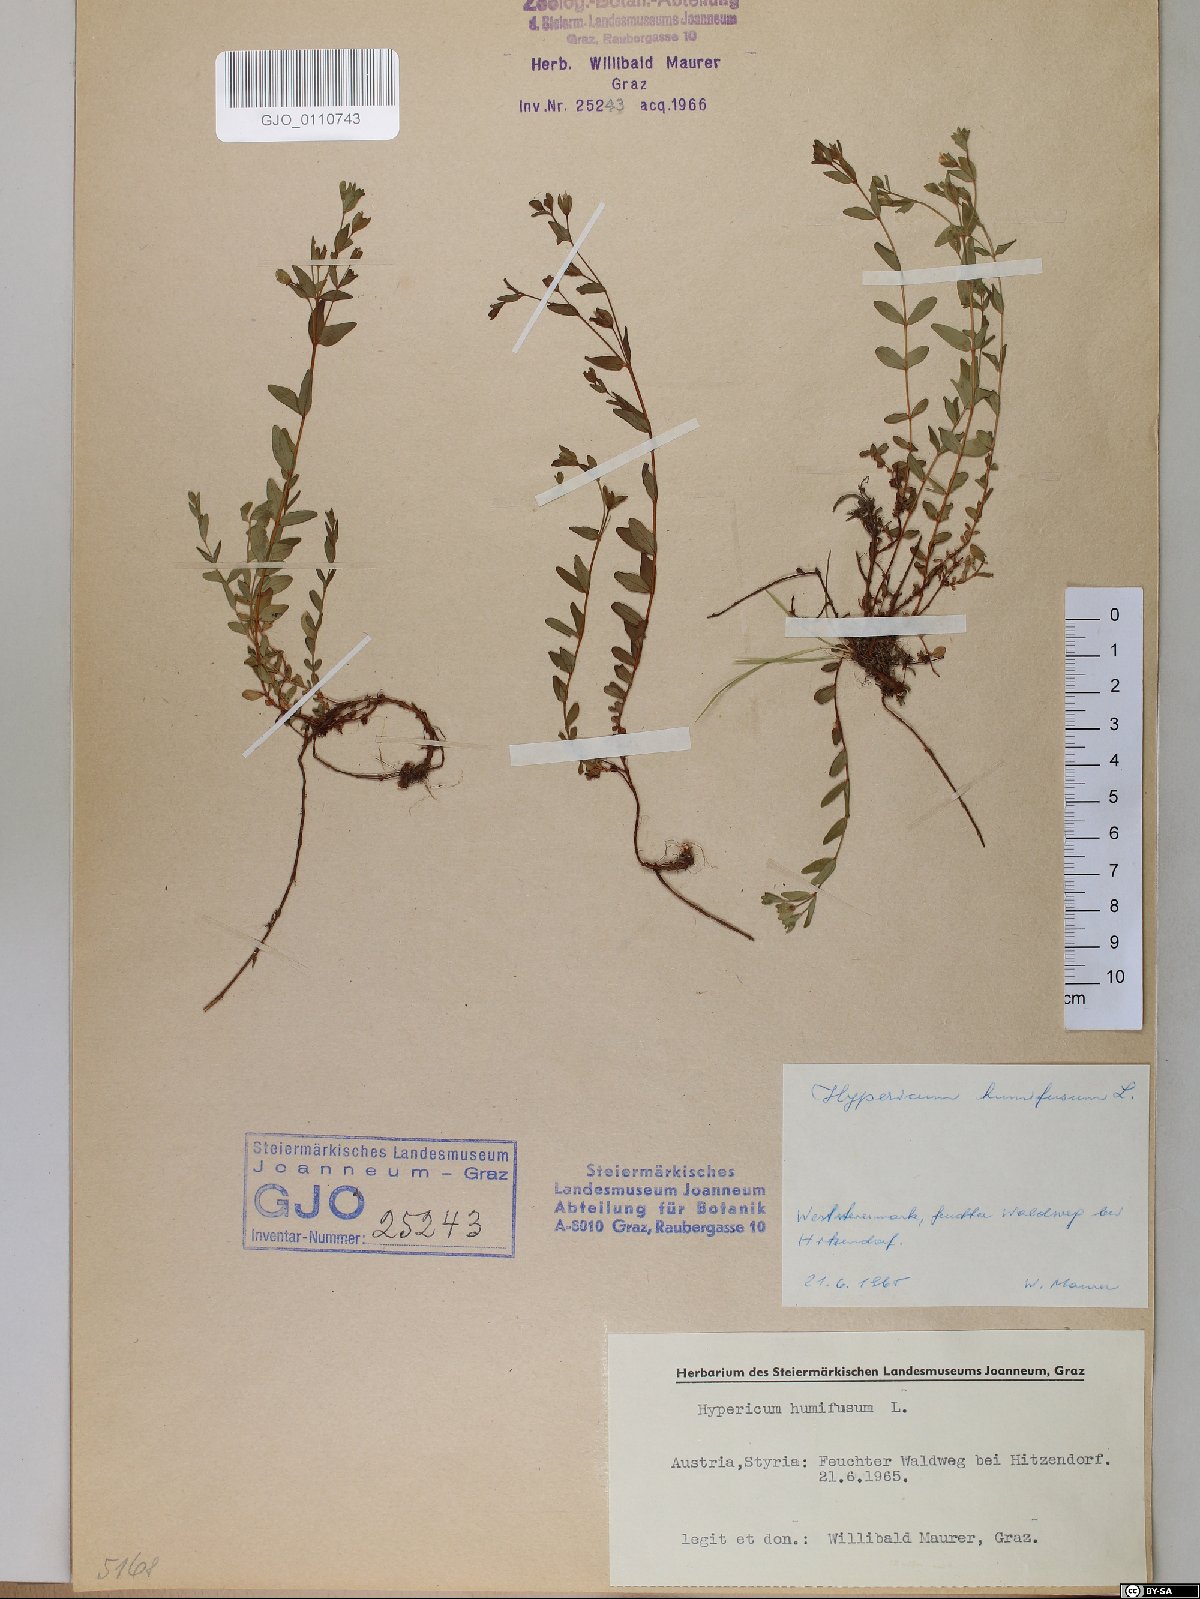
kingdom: Plantae
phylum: Tracheophyta
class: Magnoliopsida
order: Malpighiales
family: Hypericaceae
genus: Hypericum
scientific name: Hypericum humifusum
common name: Trailing st. john's-wort
